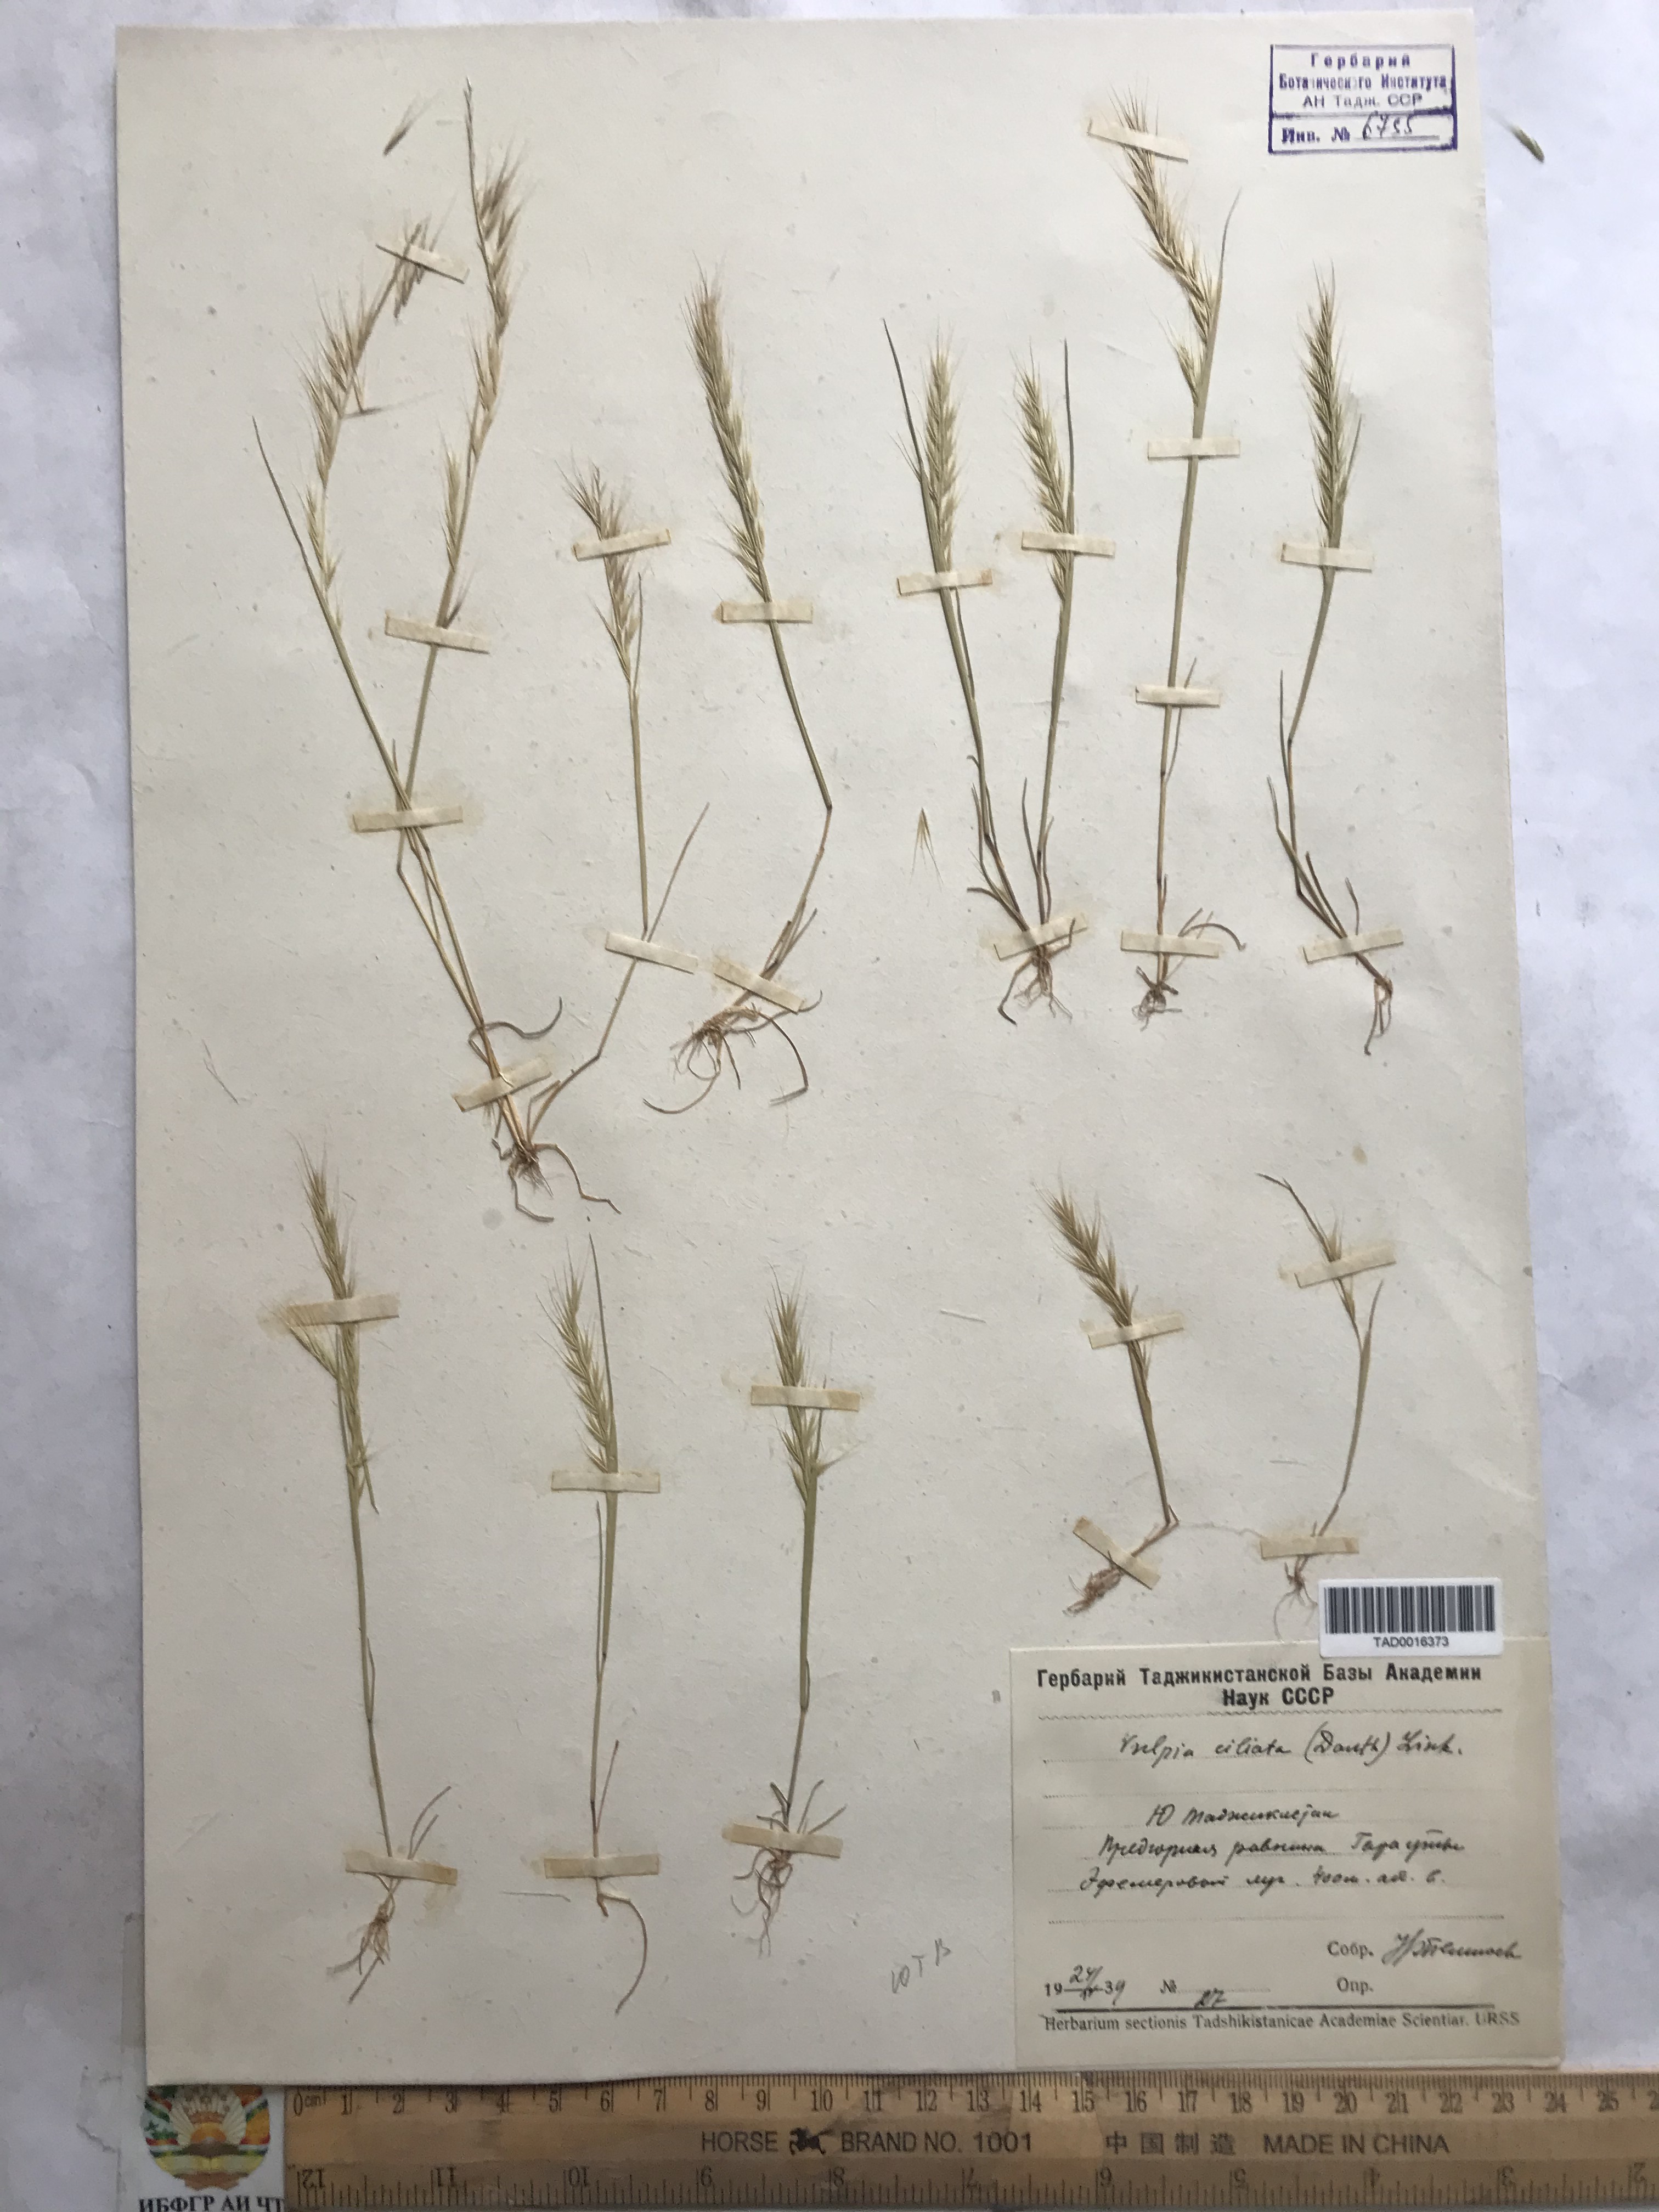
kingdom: Plantae
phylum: Tracheophyta
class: Liliopsida
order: Poales
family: Poaceae
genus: Festuca
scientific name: Festuca ambigua
